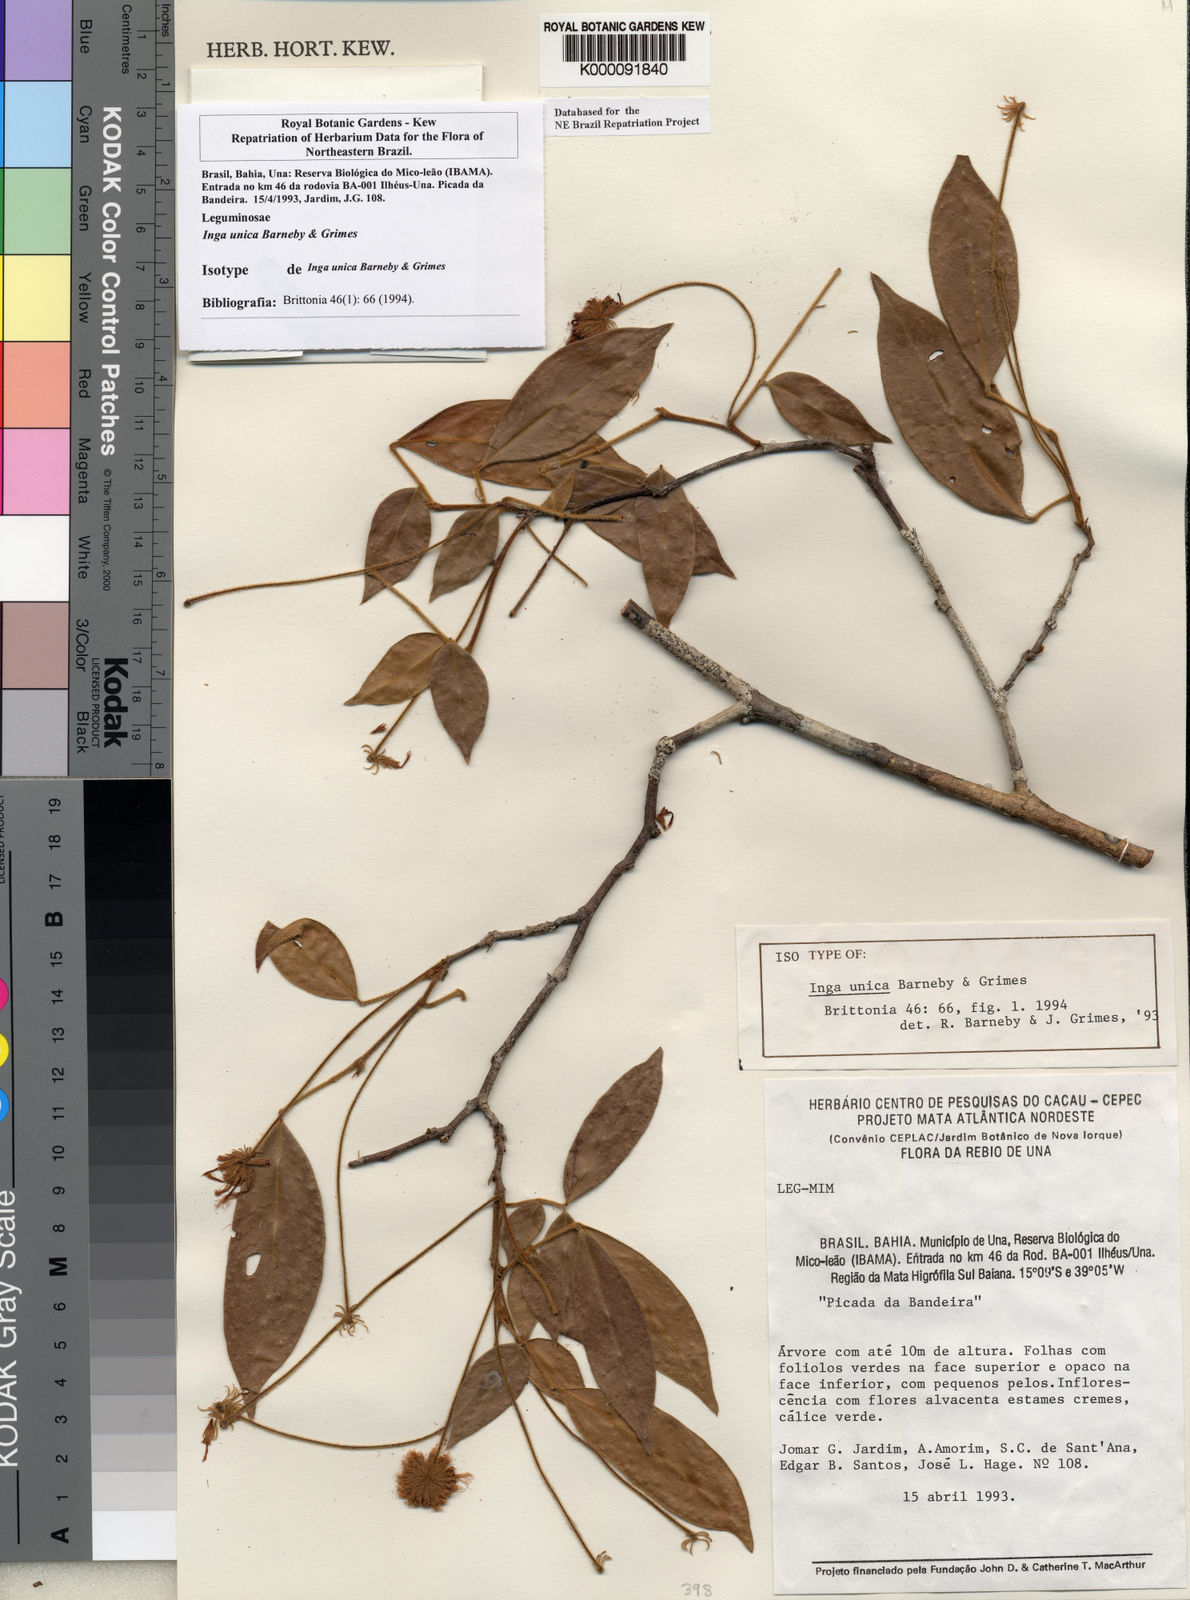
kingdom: Plantae
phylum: Tracheophyta
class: Magnoliopsida
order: Fabales
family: Fabaceae
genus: Inga
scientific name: Inga unica
